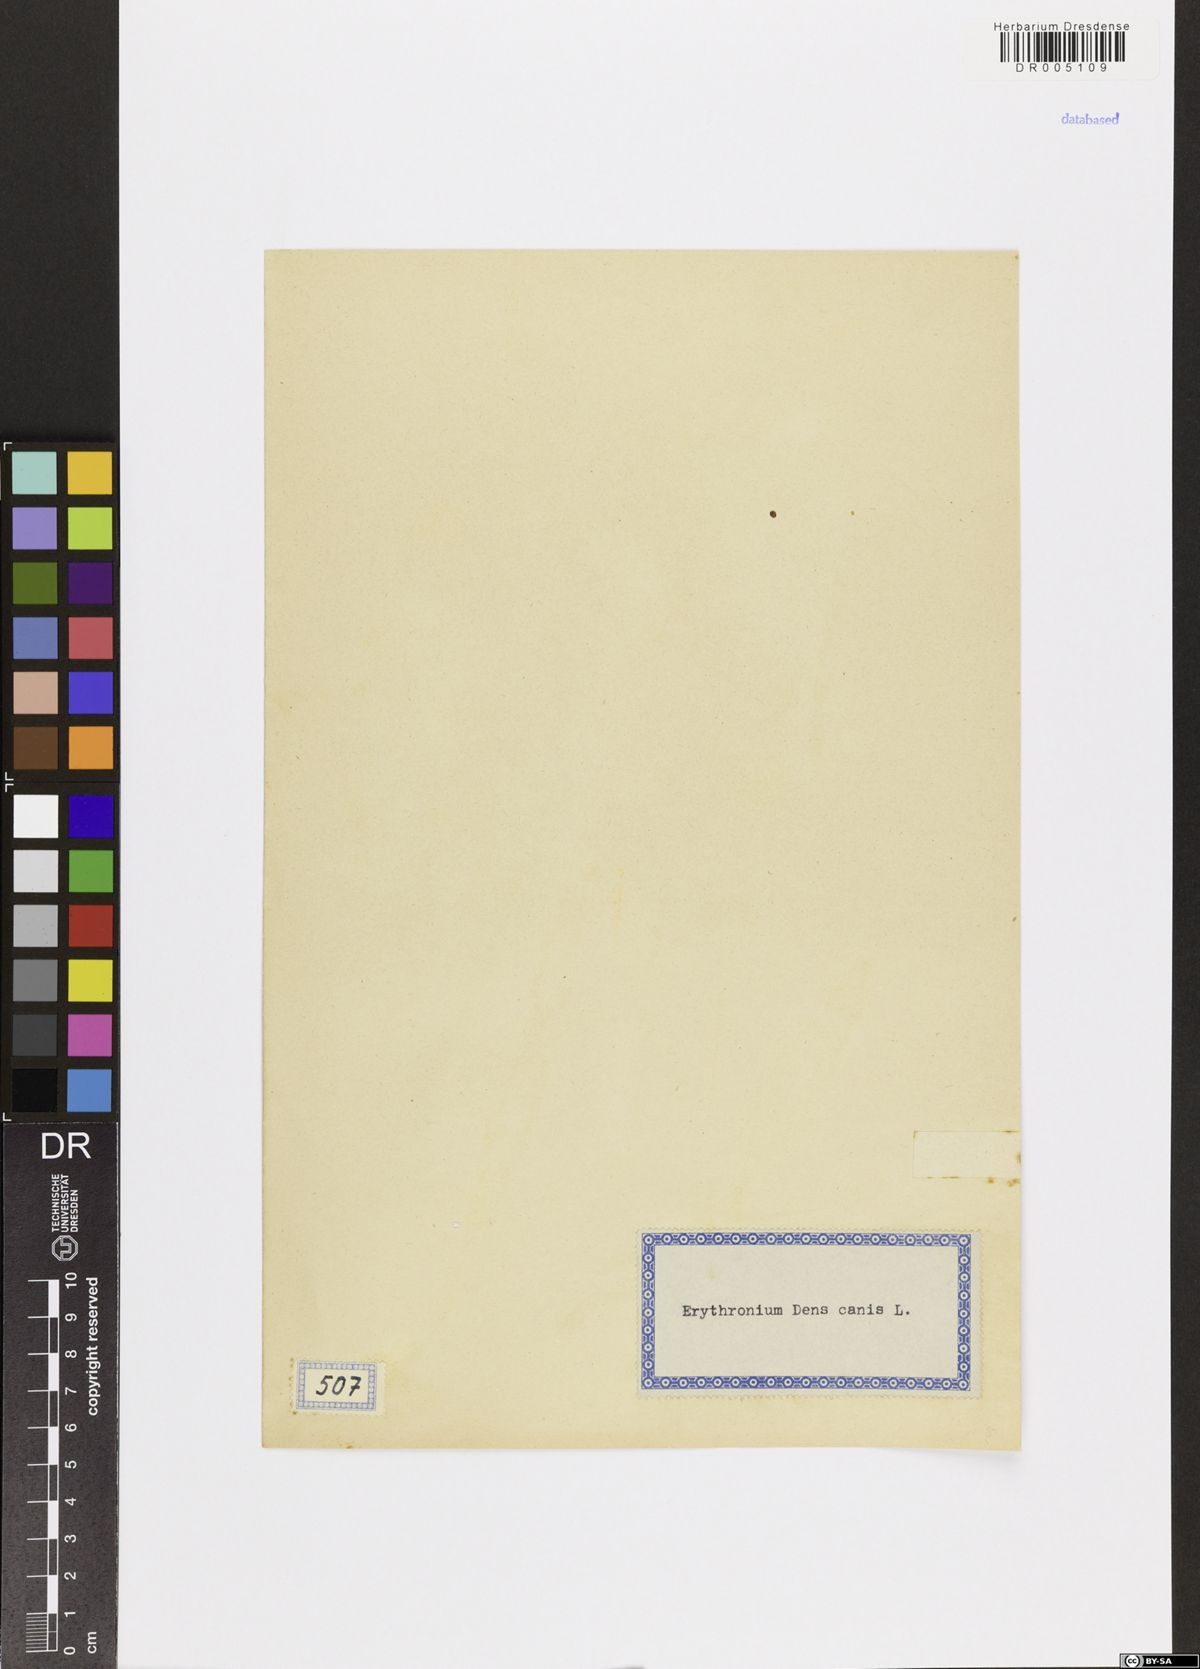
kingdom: Plantae
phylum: Tracheophyta
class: Liliopsida
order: Liliales
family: Liliaceae
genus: Erythronium
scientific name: Erythronium dens-canis
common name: Dog's-tooth-violet
